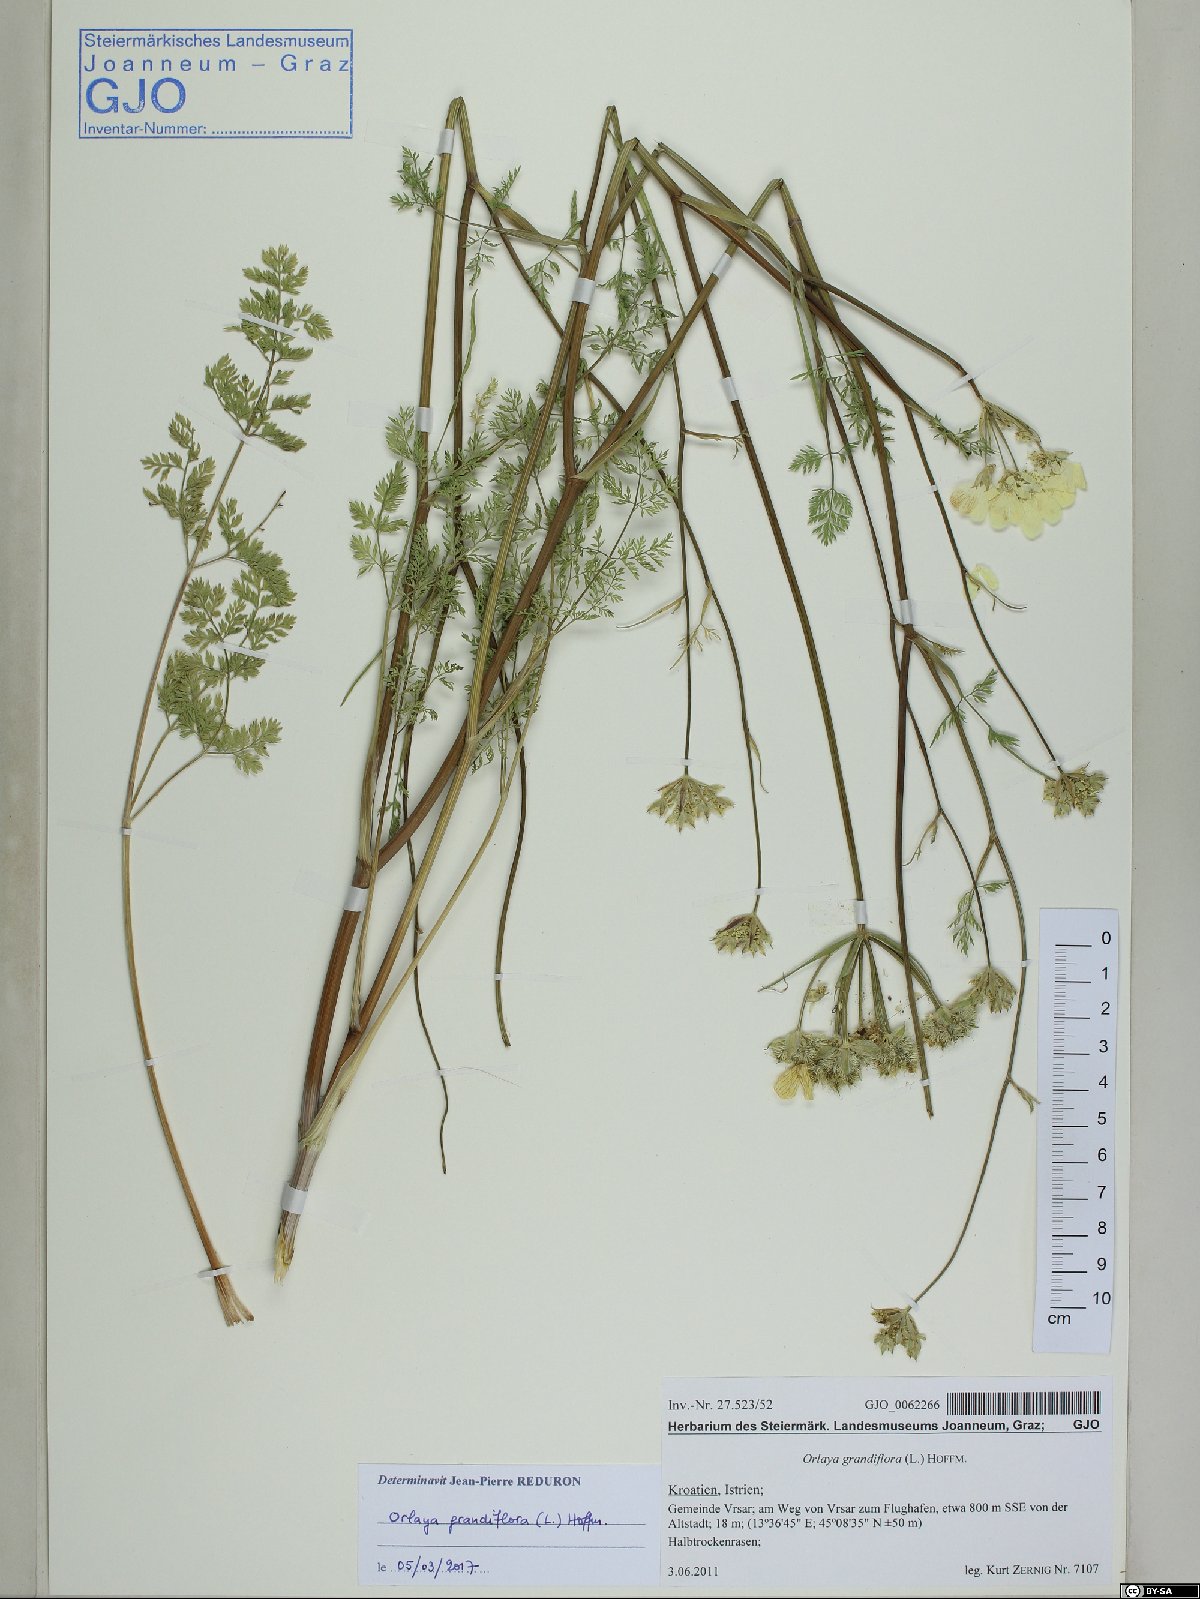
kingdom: Plantae
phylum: Tracheophyta
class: Magnoliopsida
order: Apiales
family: Apiaceae
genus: Orlaya
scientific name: Orlaya grandiflora
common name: White lace flower
